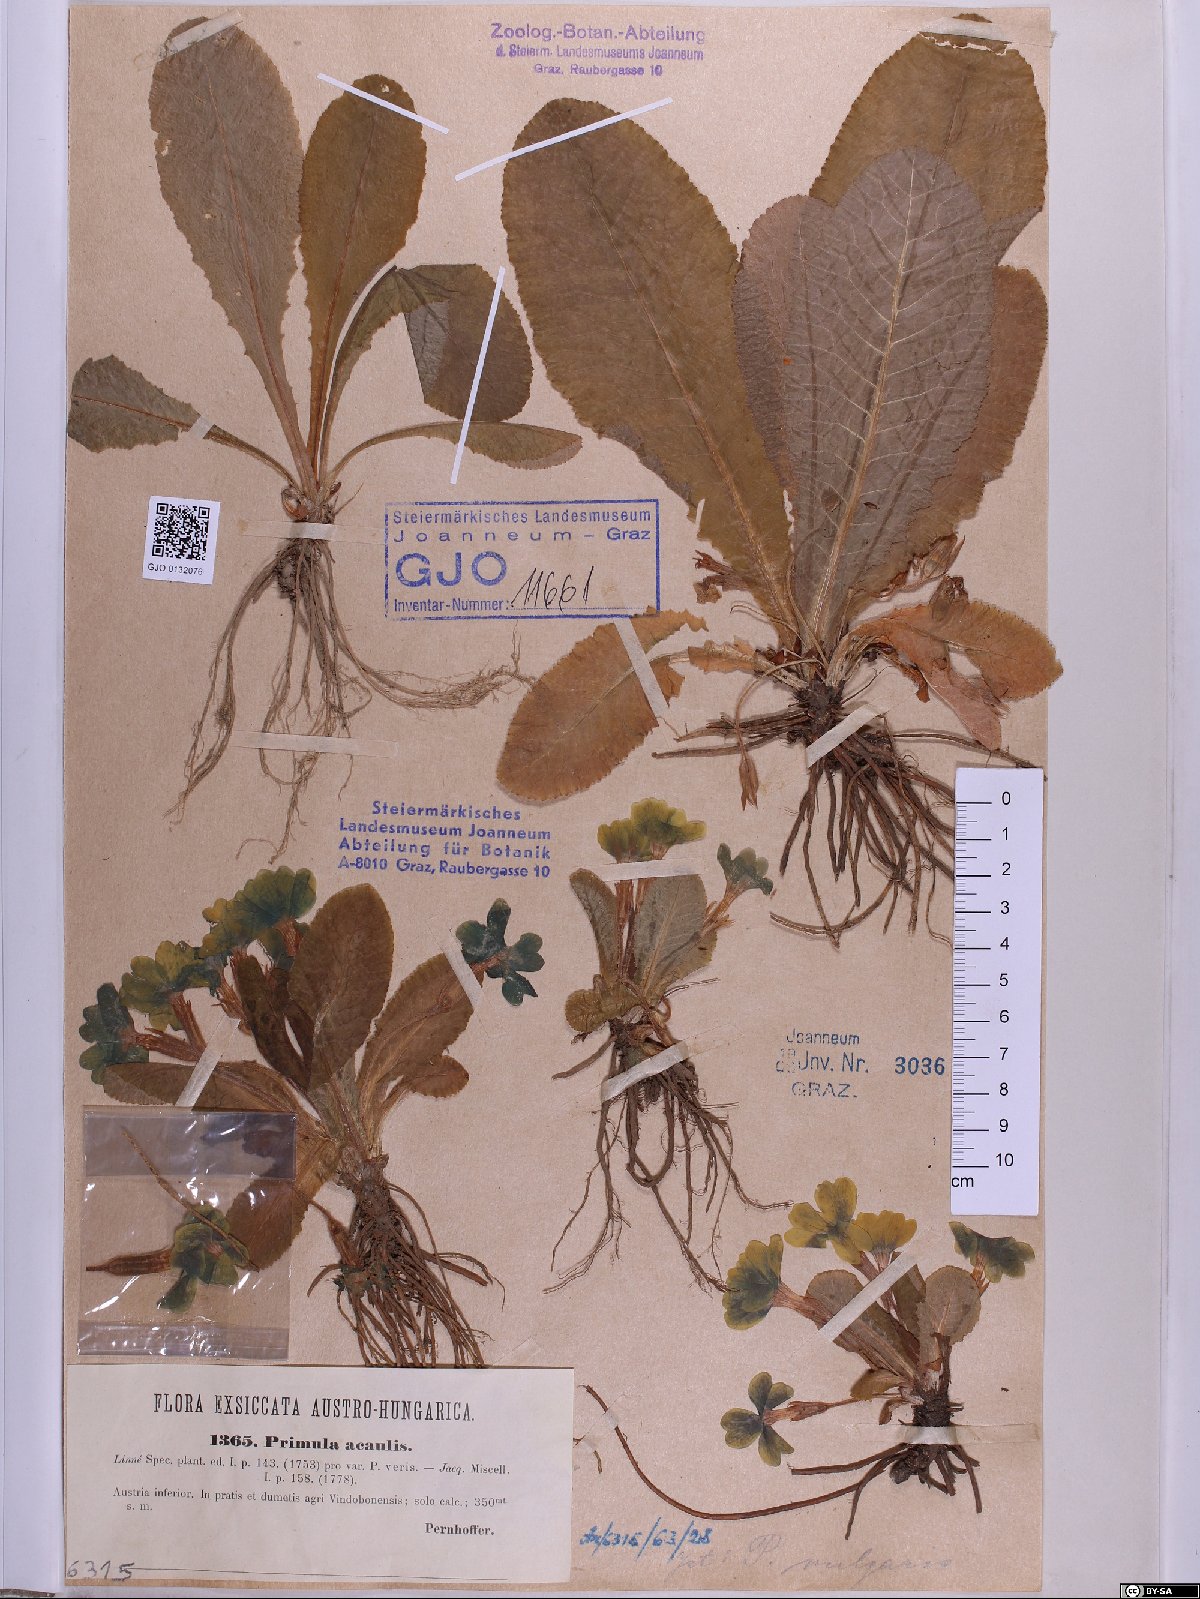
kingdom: Plantae
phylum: Tracheophyta
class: Magnoliopsida
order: Ericales
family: Primulaceae
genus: Primula
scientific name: Primula vulgaris
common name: Primrose
